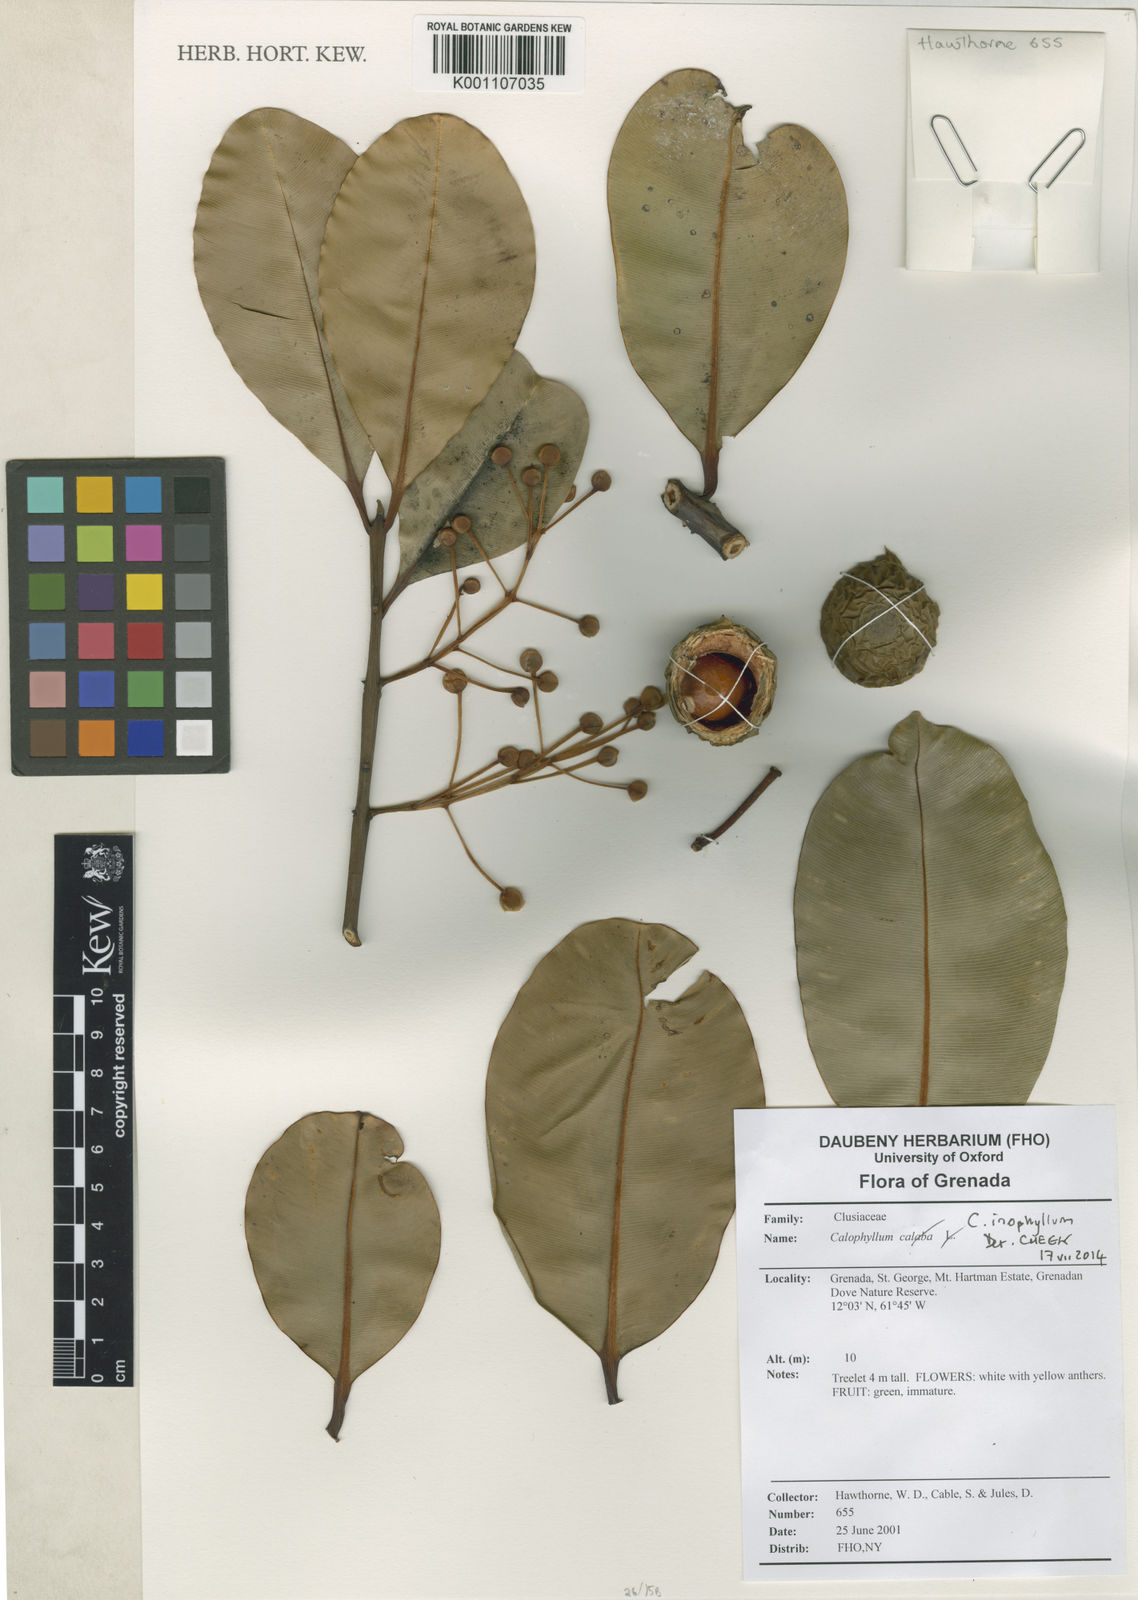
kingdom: Plantae
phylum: Tracheophyta
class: Magnoliopsida
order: Malpighiales
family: Calophyllaceae
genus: Calophyllum
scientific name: Calophyllum inophyllum
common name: Alexandrian laurel
